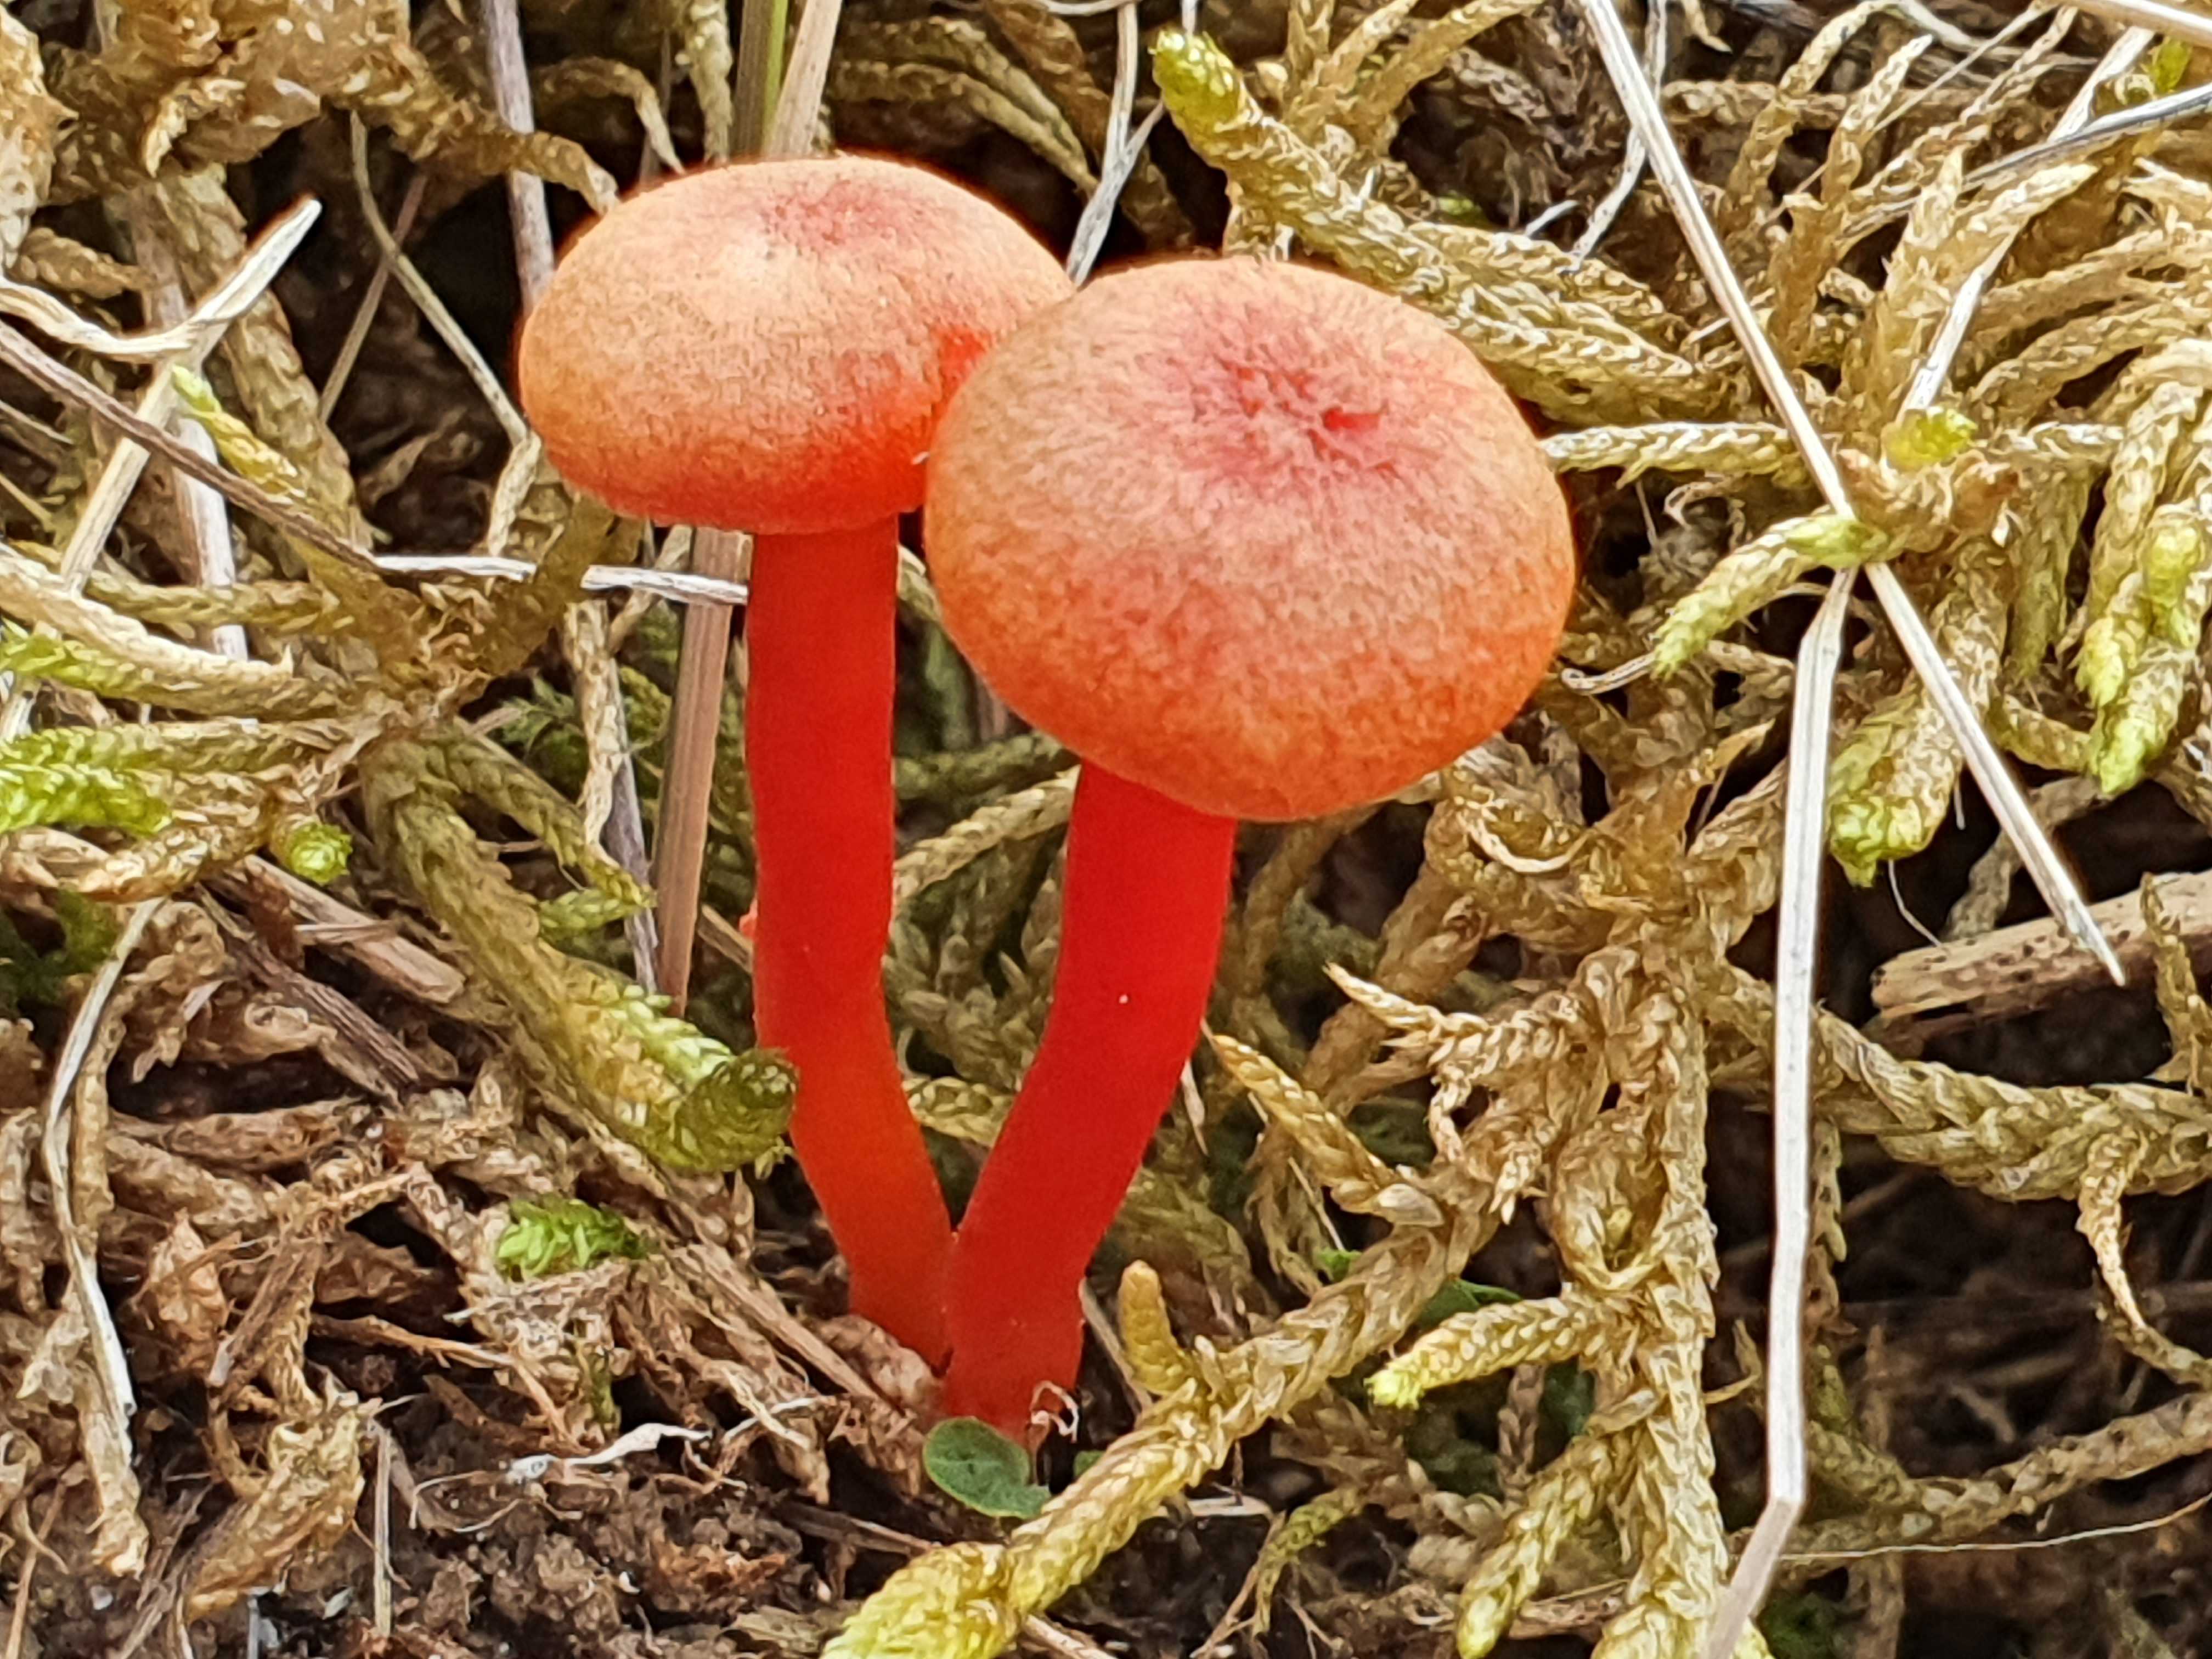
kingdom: Fungi
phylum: Basidiomycota
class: Agaricomycetes
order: Agaricales
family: Hygrophoraceae
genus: Hygrocybe
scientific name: Hygrocybe calciphila
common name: kalk-vokshat
